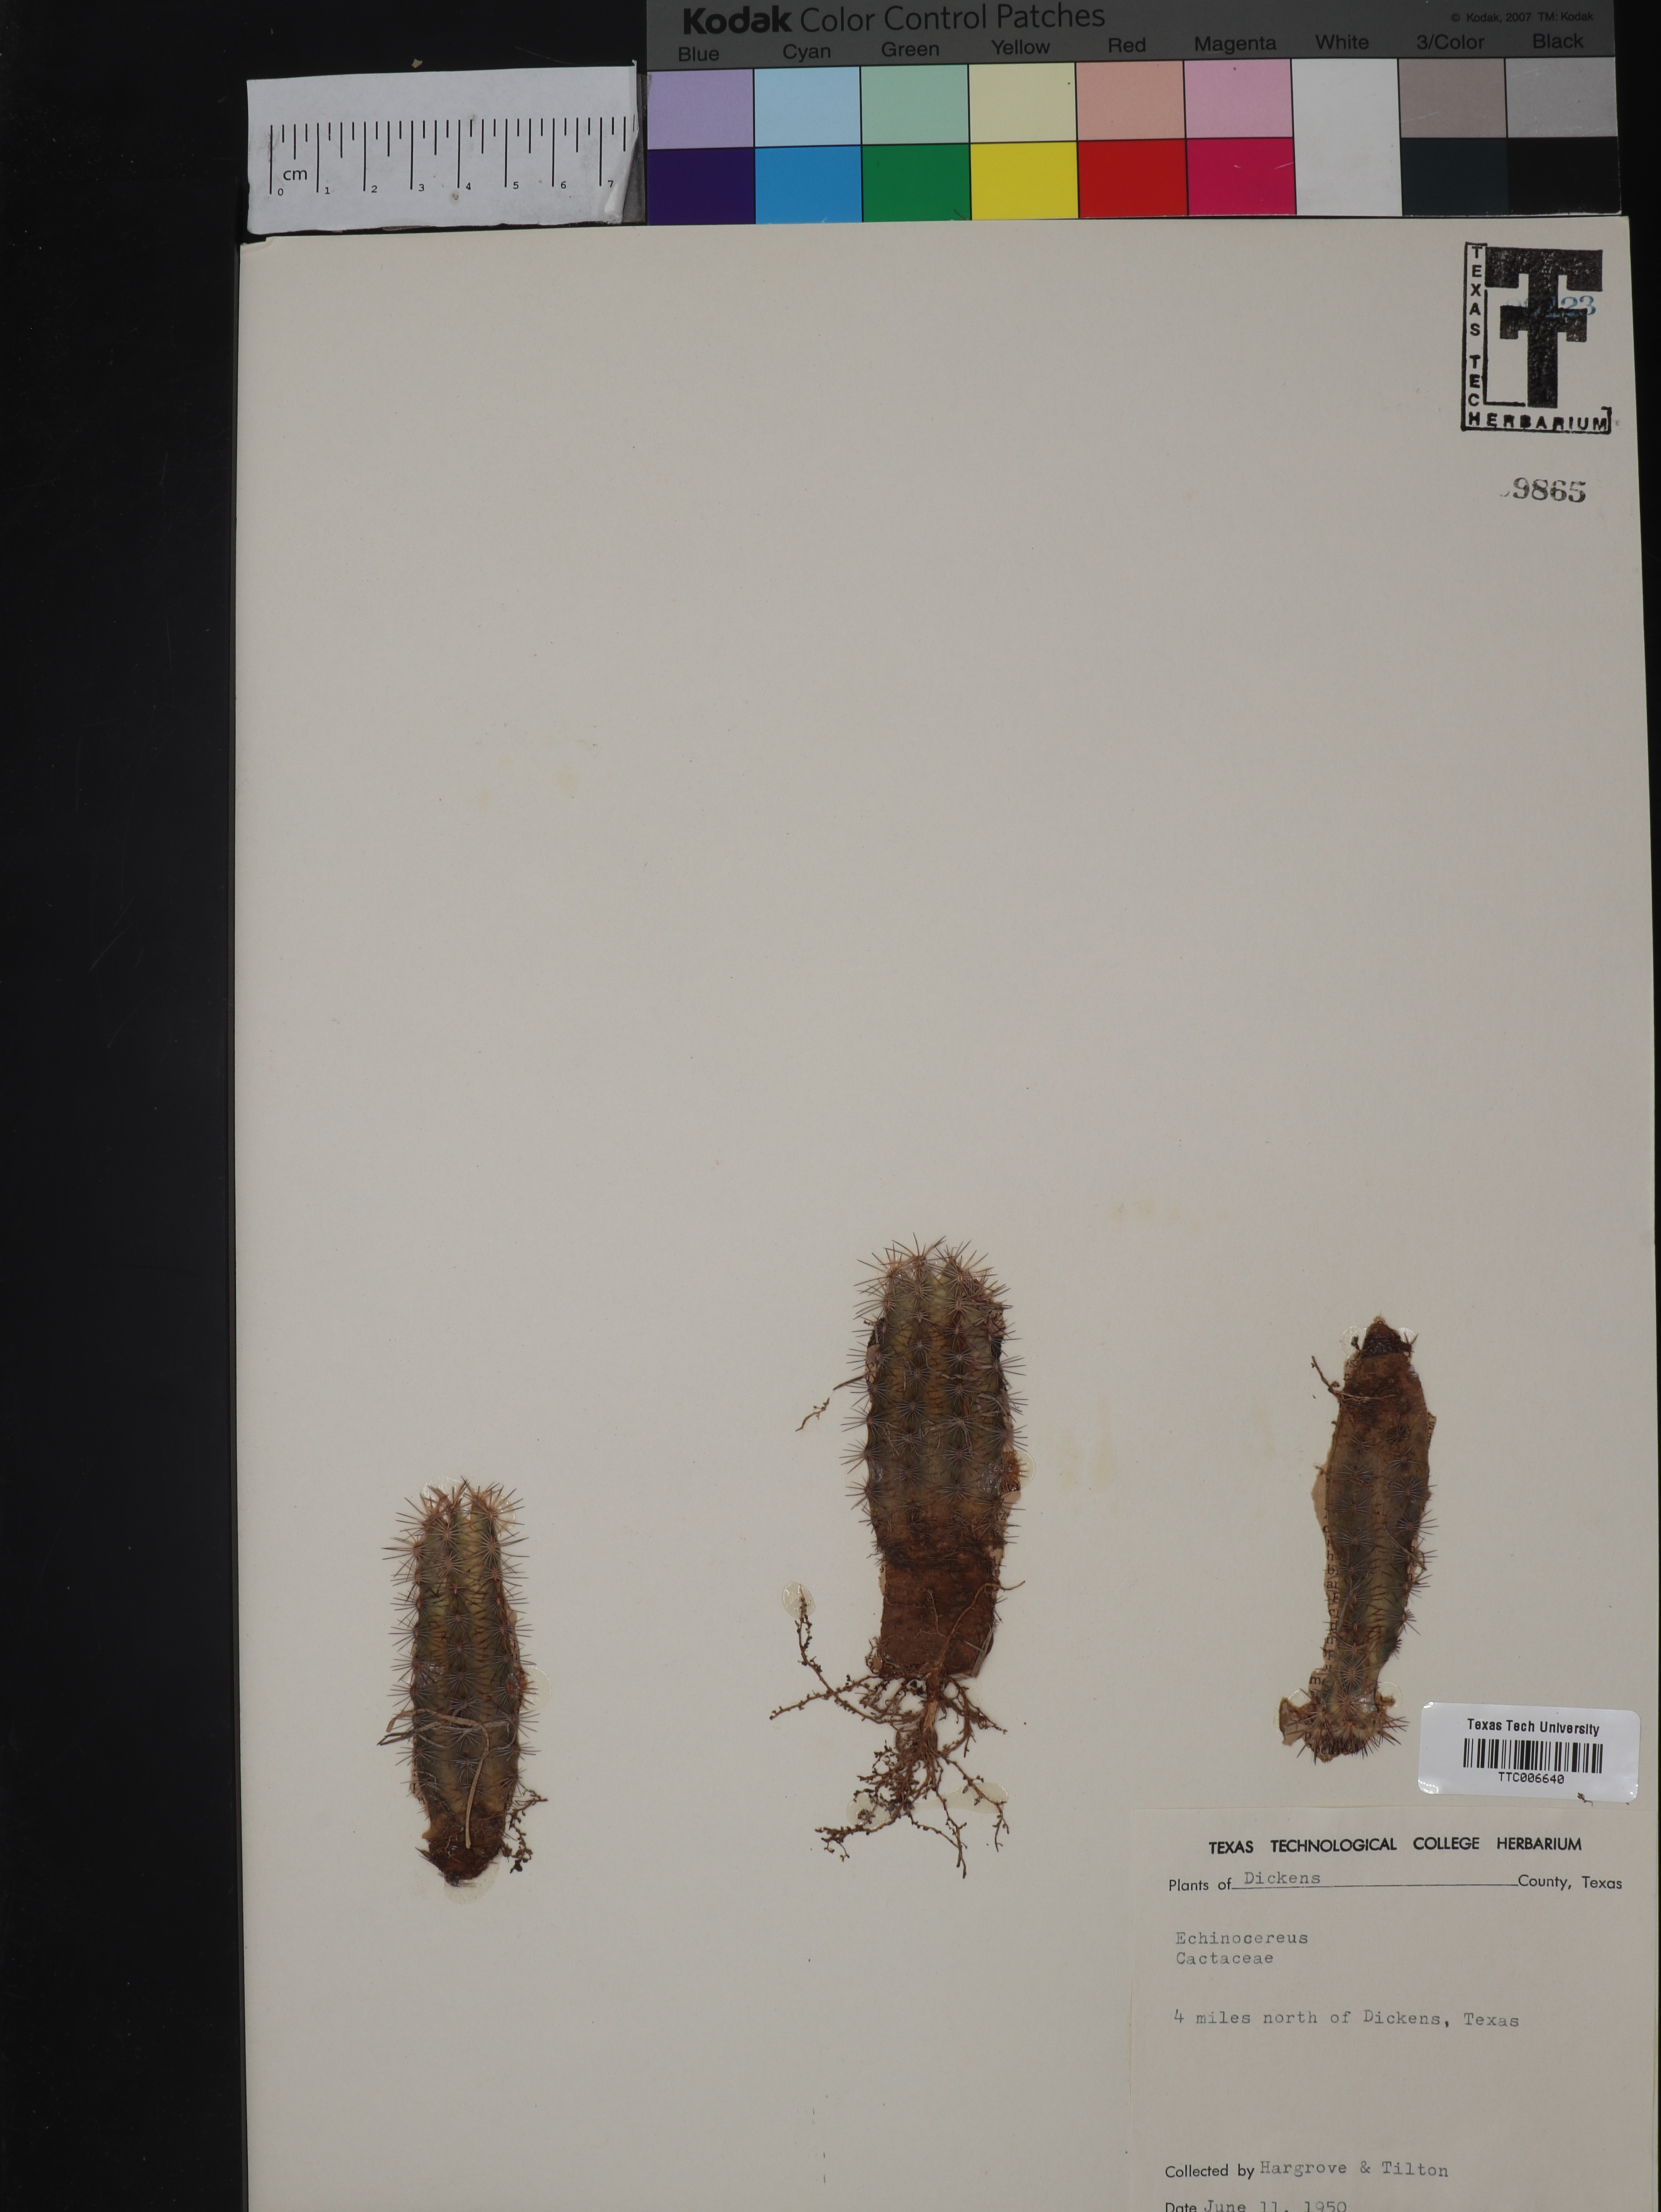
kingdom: Plantae
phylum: Tracheophyta
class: Magnoliopsida
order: Caryophyllales
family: Cactaceae
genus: Echinocereus
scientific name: Echinocereus
